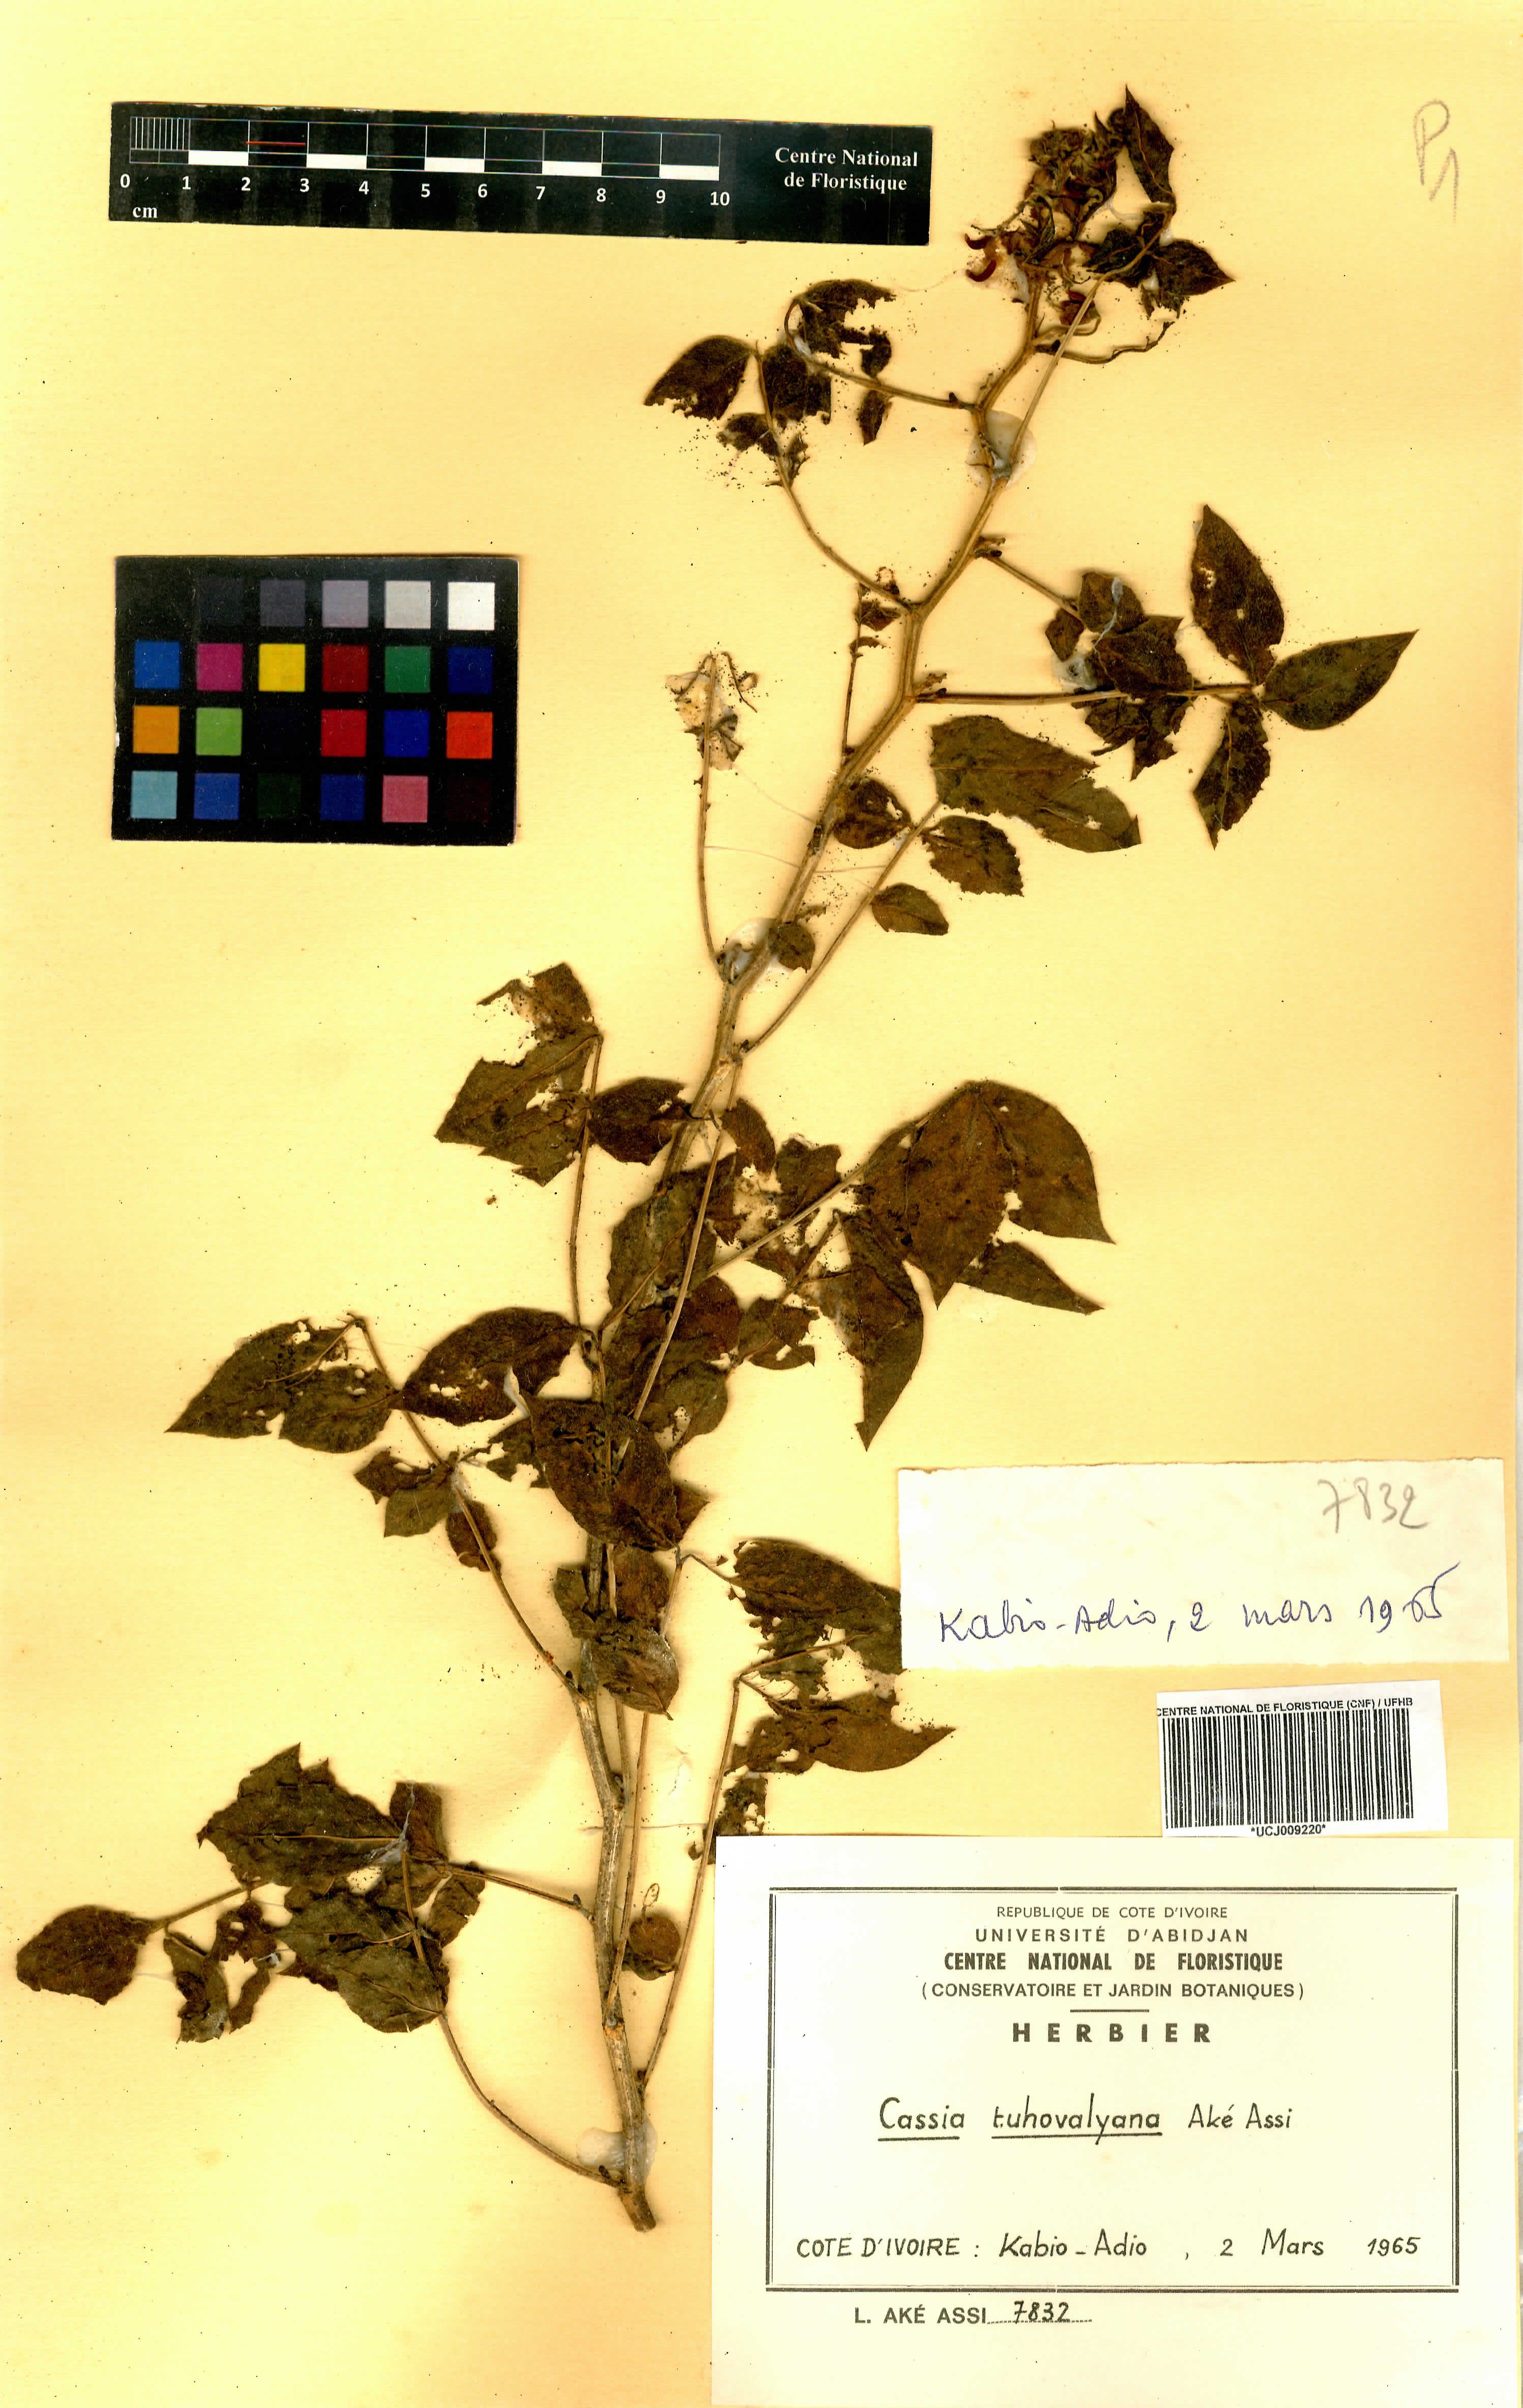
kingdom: Plantae
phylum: Tracheophyta
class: Magnoliopsida
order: Fabales
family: Fabaceae
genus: Senna
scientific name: Senna tuhovalyana
